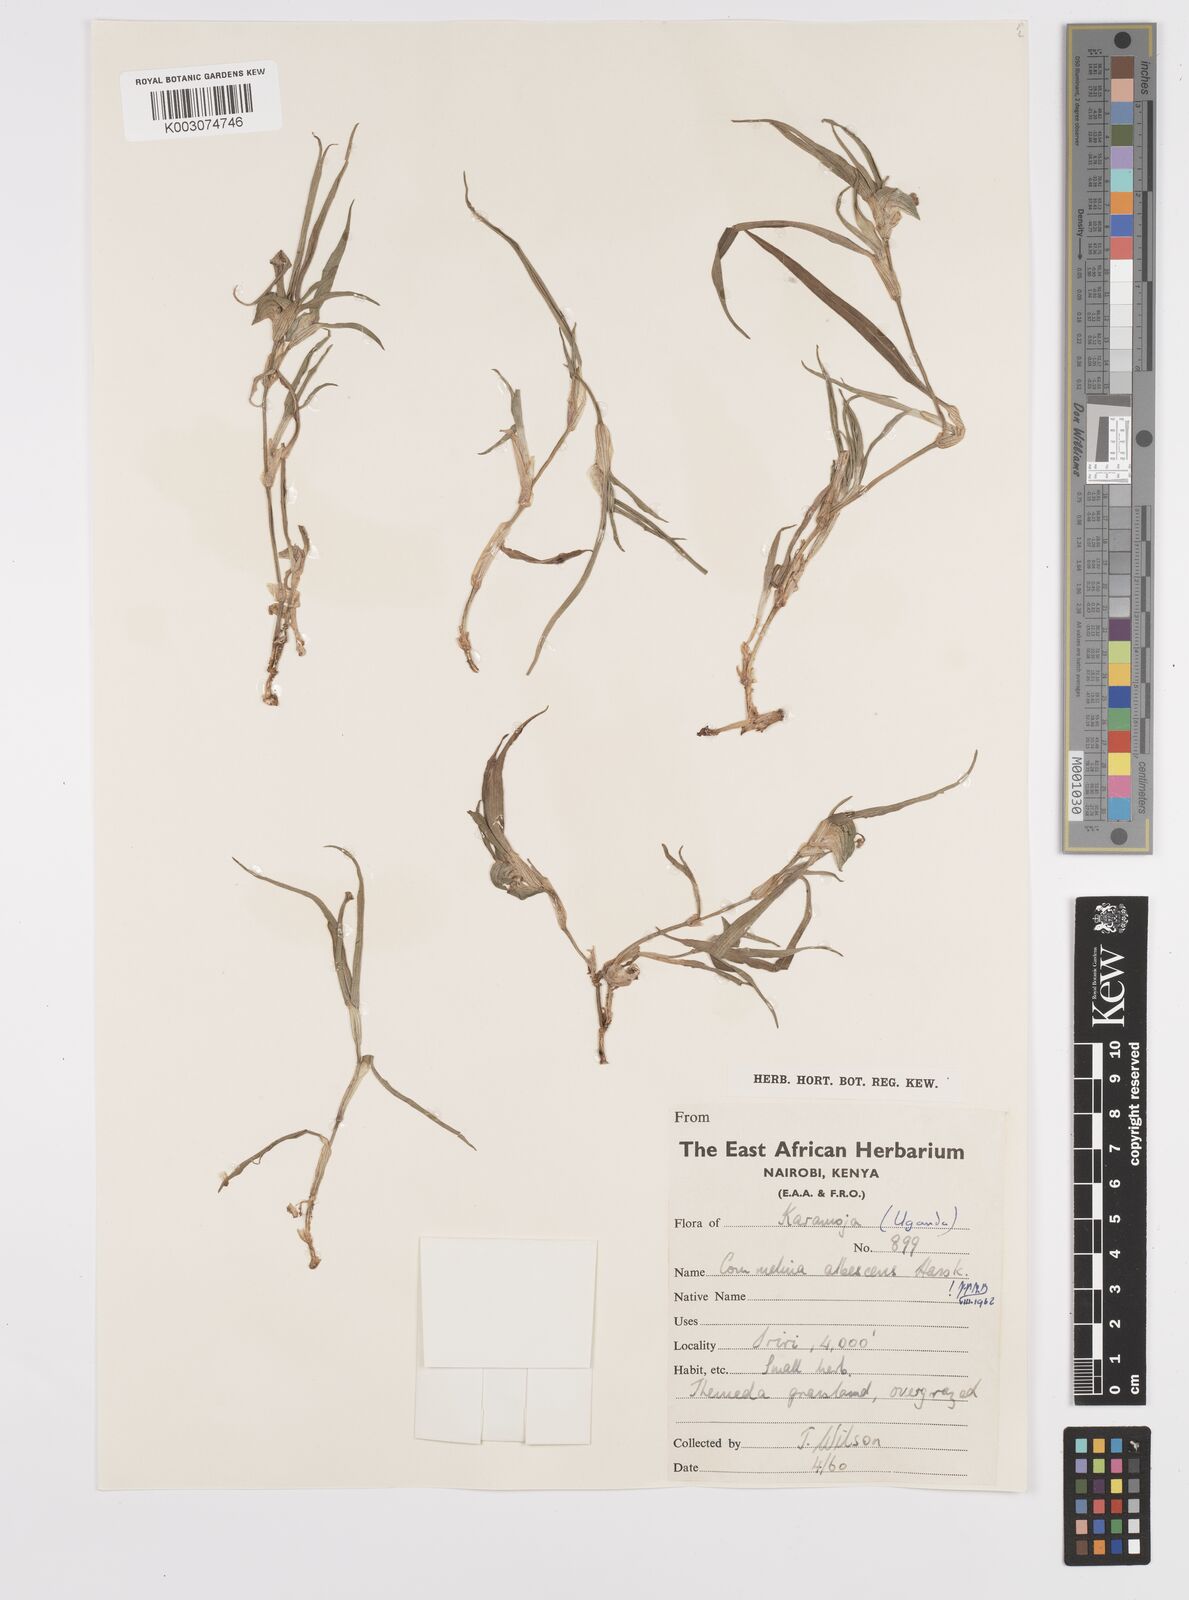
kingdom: Plantae
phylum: Tracheophyta
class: Liliopsida
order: Commelinales
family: Commelinaceae
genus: Commelina
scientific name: Commelina albescens
